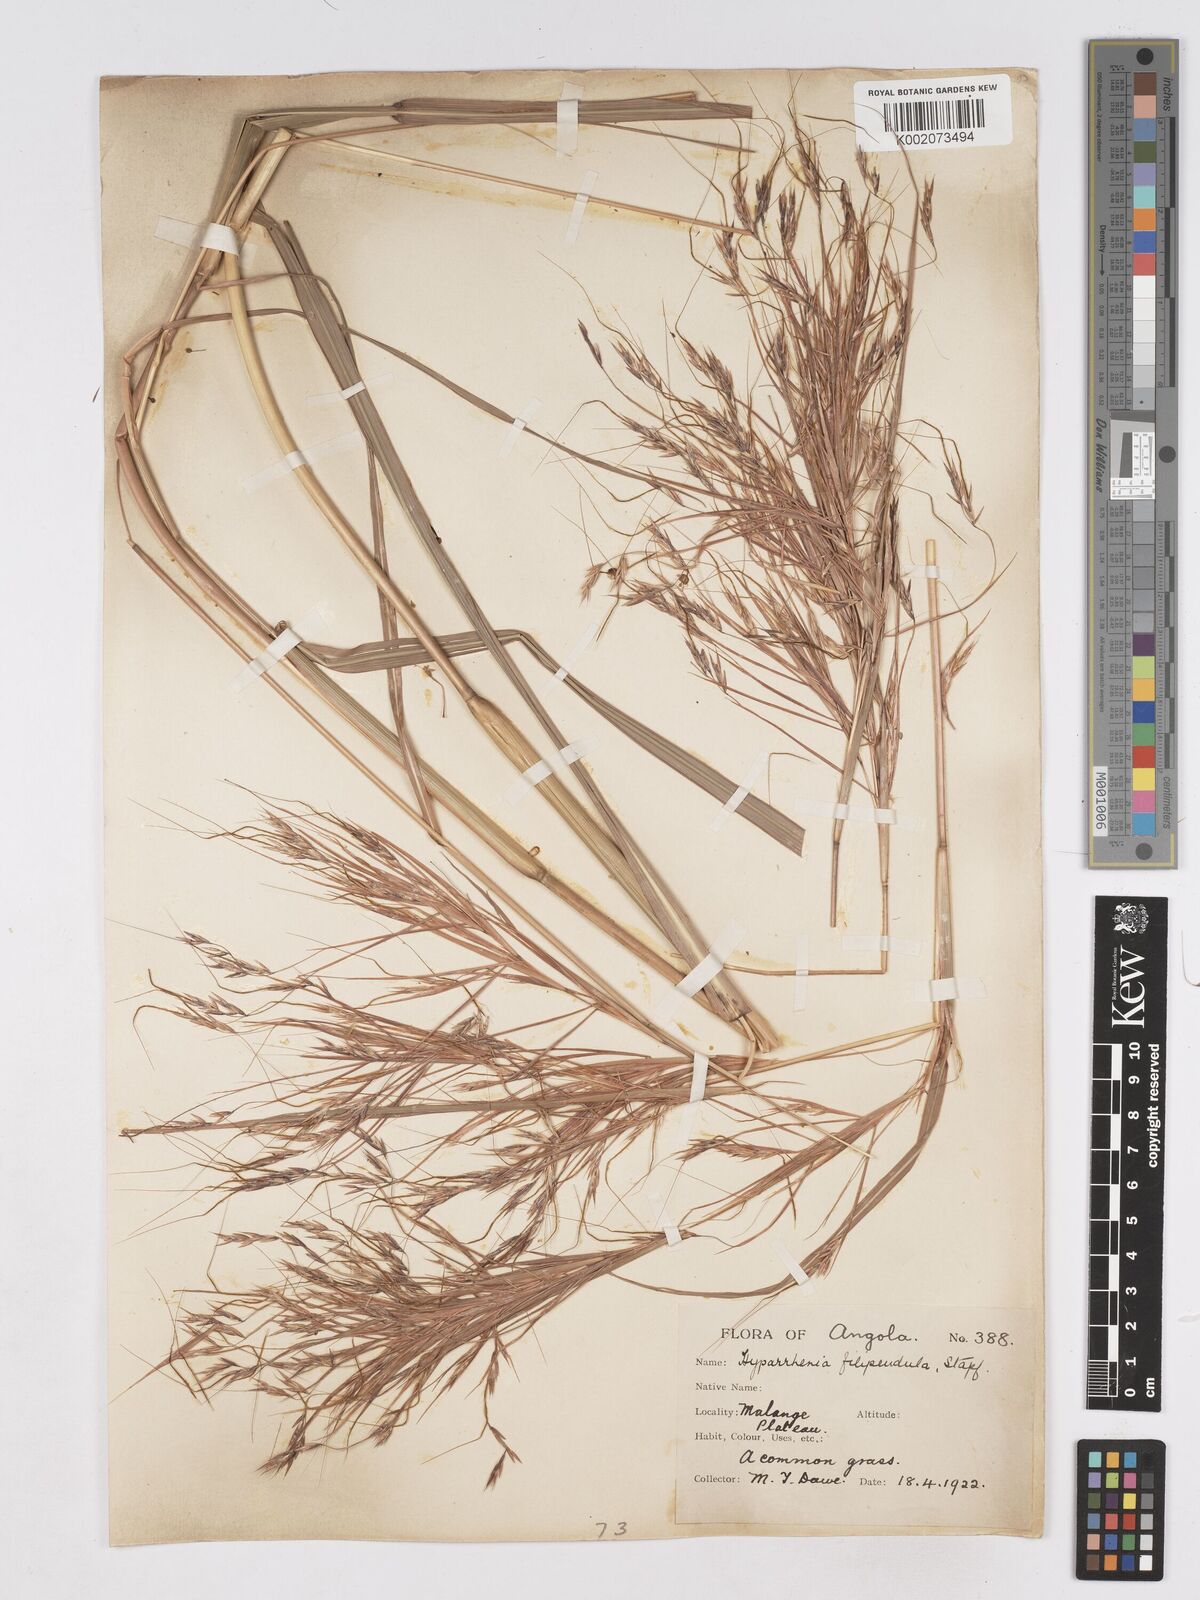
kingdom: Plantae
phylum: Tracheophyta
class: Liliopsida
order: Poales
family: Poaceae
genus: Hyparrhenia
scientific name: Hyparrhenia filipendula
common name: Tambookie grass
